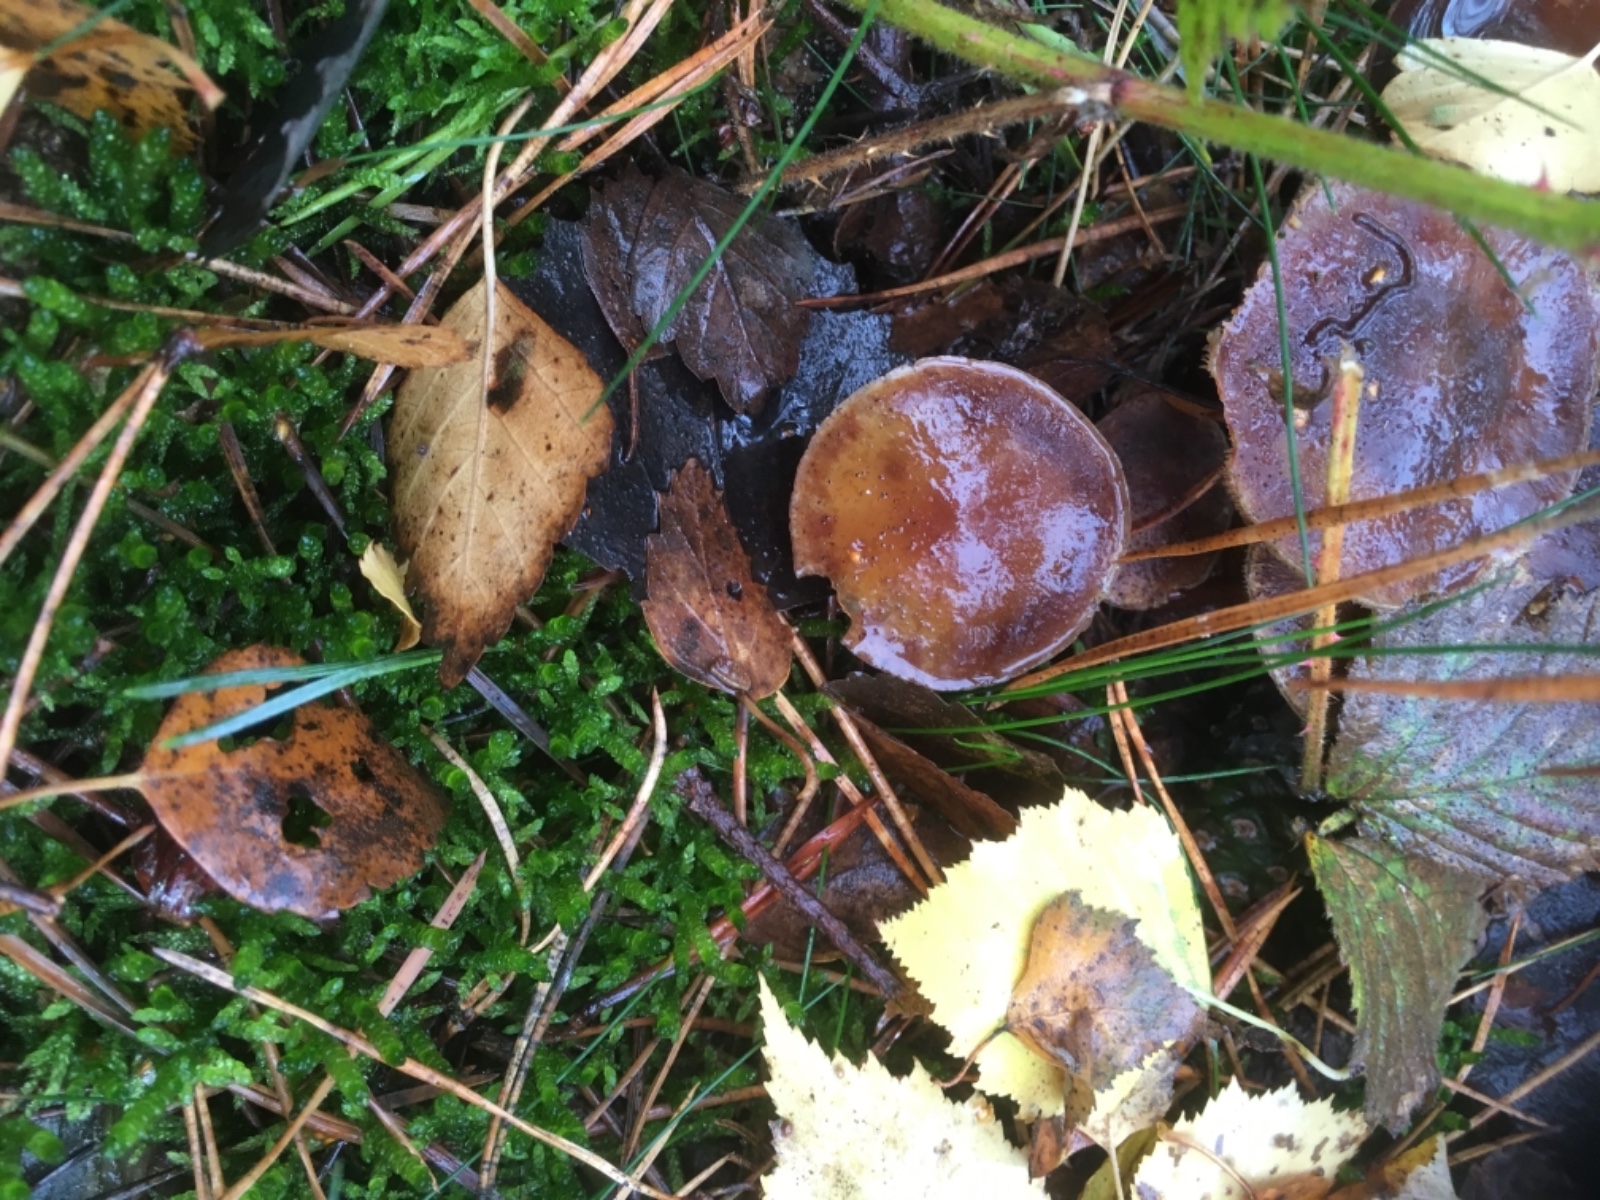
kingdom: Fungi
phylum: Basidiomycota
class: Agaricomycetes
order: Agaricales
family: Strophariaceae
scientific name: Strophariaceae
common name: bredbladfamilien
